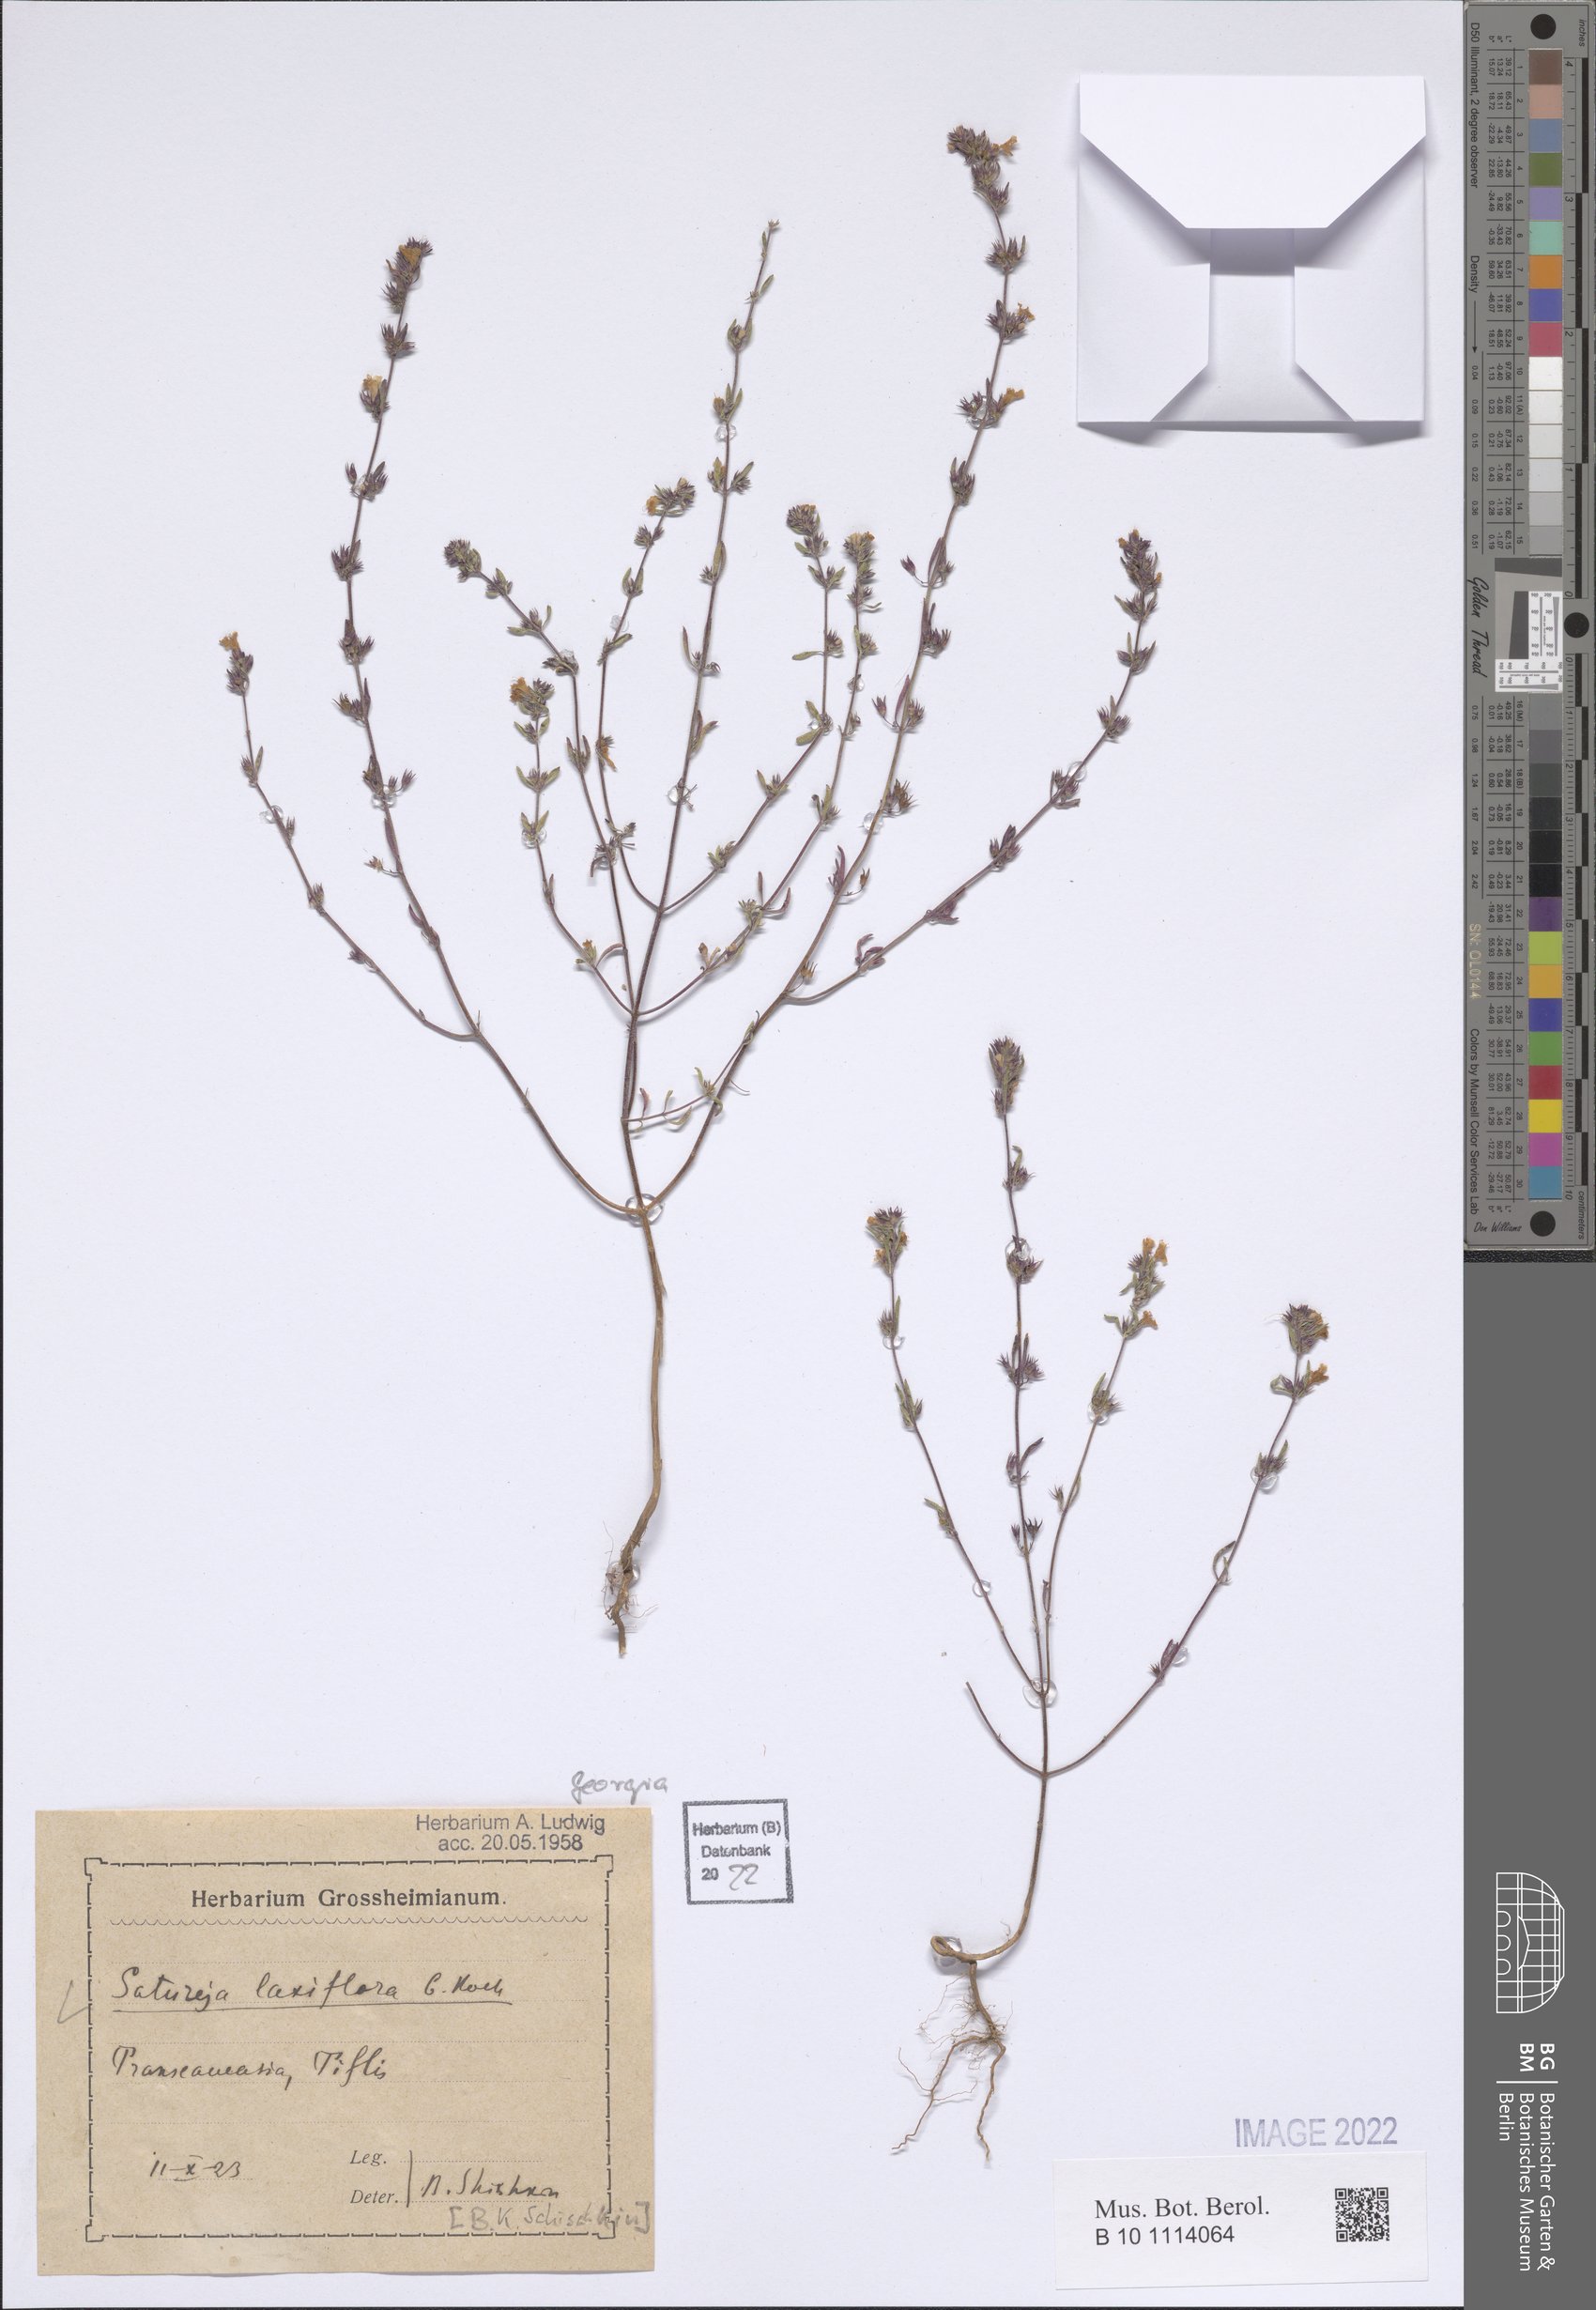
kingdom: Plantae
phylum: Tracheophyta
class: Magnoliopsida
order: Lamiales
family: Lamiaceae
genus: Satureja
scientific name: Satureja laxiflora
